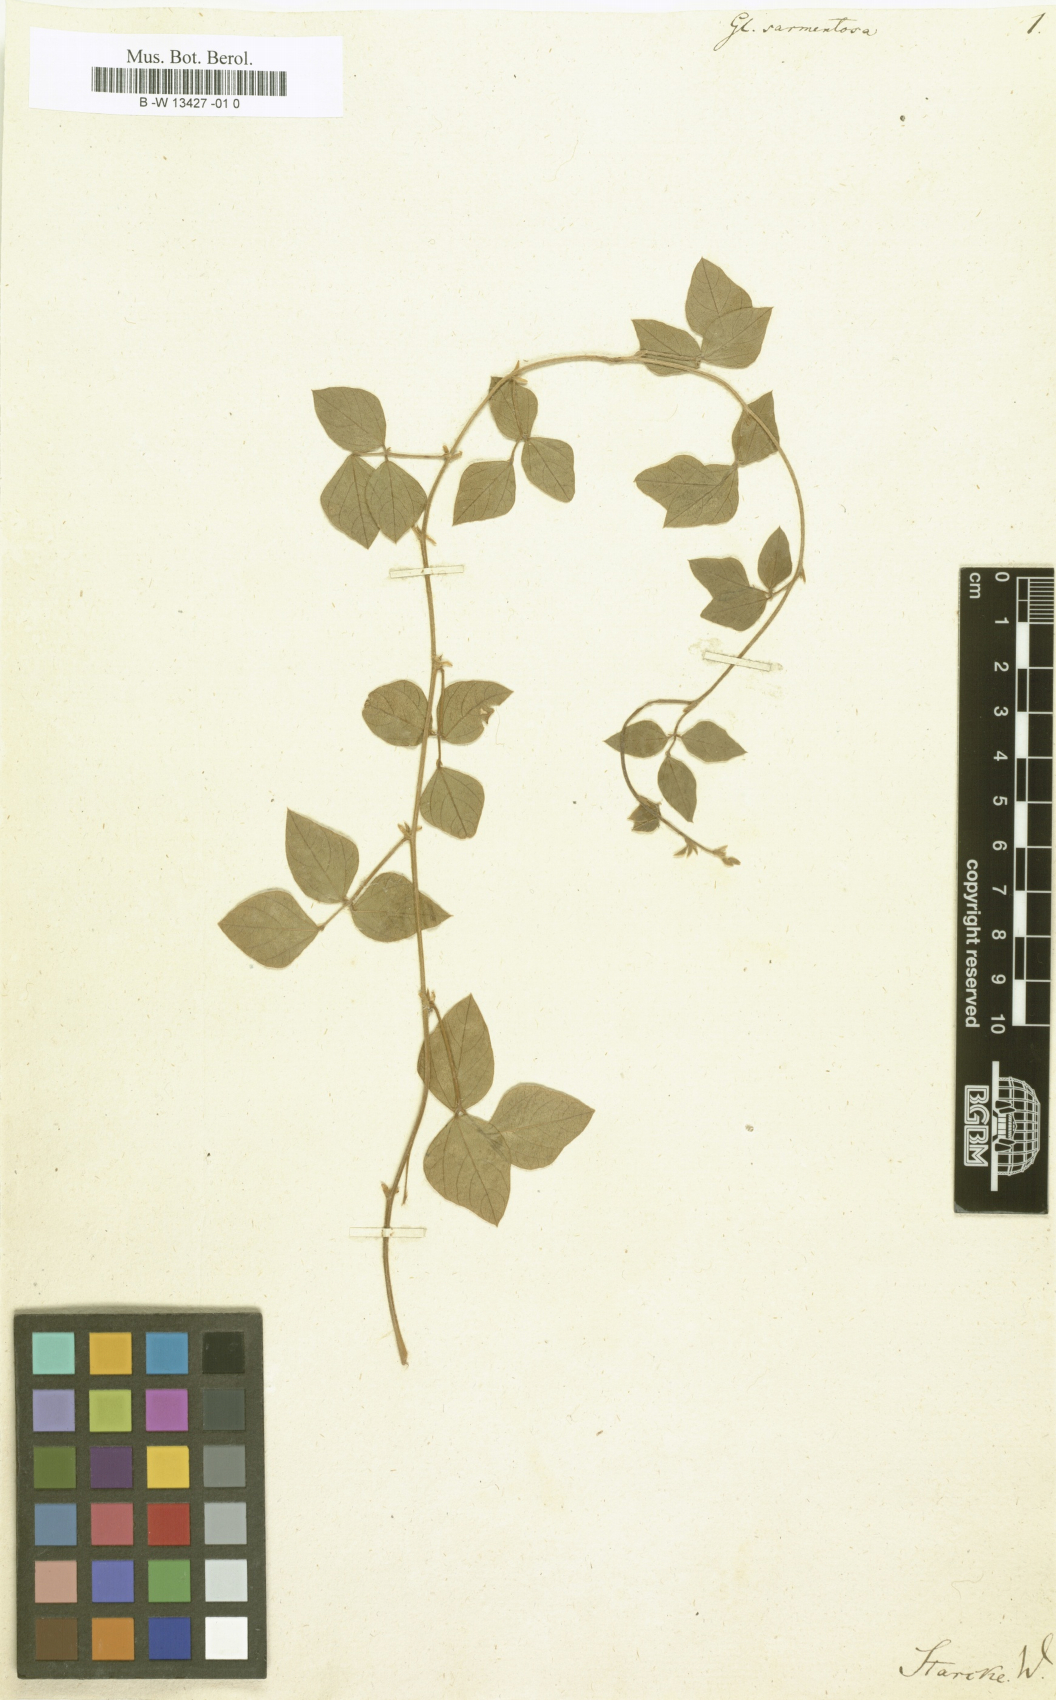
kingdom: Plantae
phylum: Tracheophyta
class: Magnoliopsida
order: Fabales
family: Fabaceae
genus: Amphicarpaea
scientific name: Amphicarpaea bracteata
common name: American hog peanut
